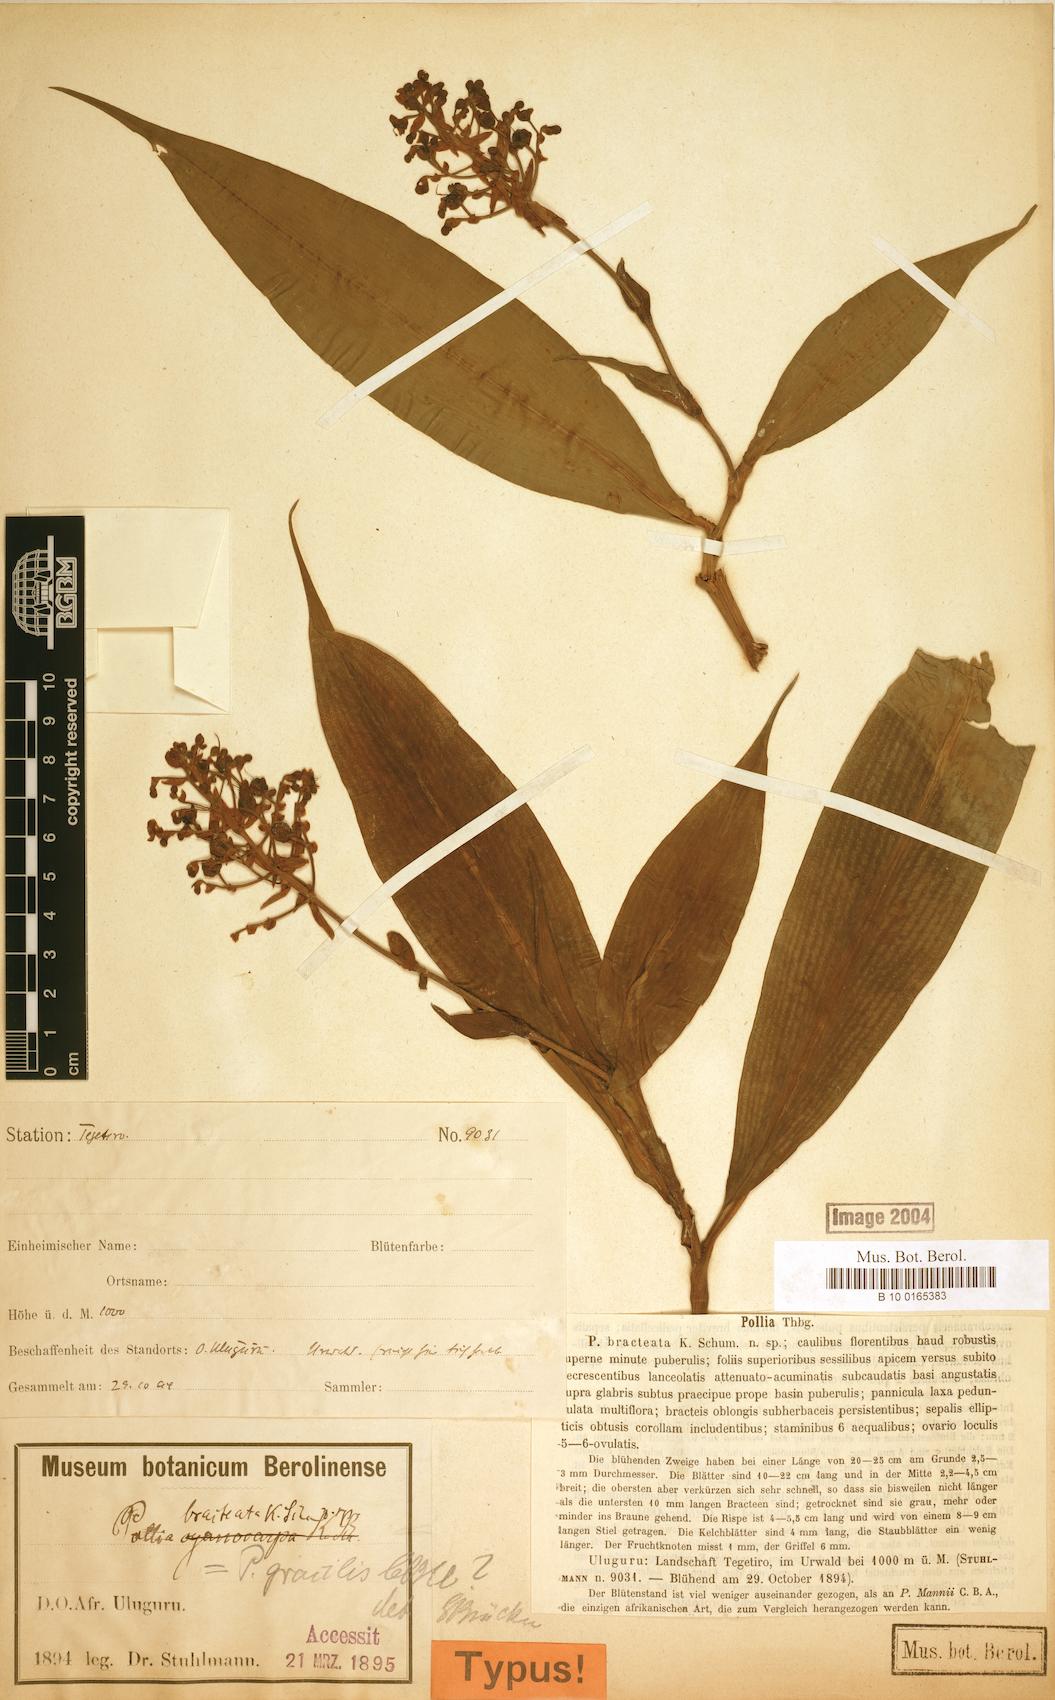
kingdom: Plantae
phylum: Tracheophyta
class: Liliopsida
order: Commelinales
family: Commelinaceae
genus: Pollia
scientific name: Pollia bracteata
